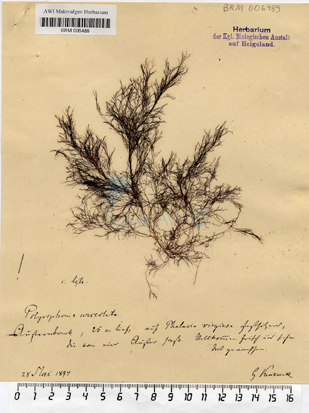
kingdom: Plantae
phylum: Rhodophyta
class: Florideophyceae
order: Ceramiales
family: Rhodomelaceae
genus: Polysiphonia
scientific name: Polysiphonia stricta
